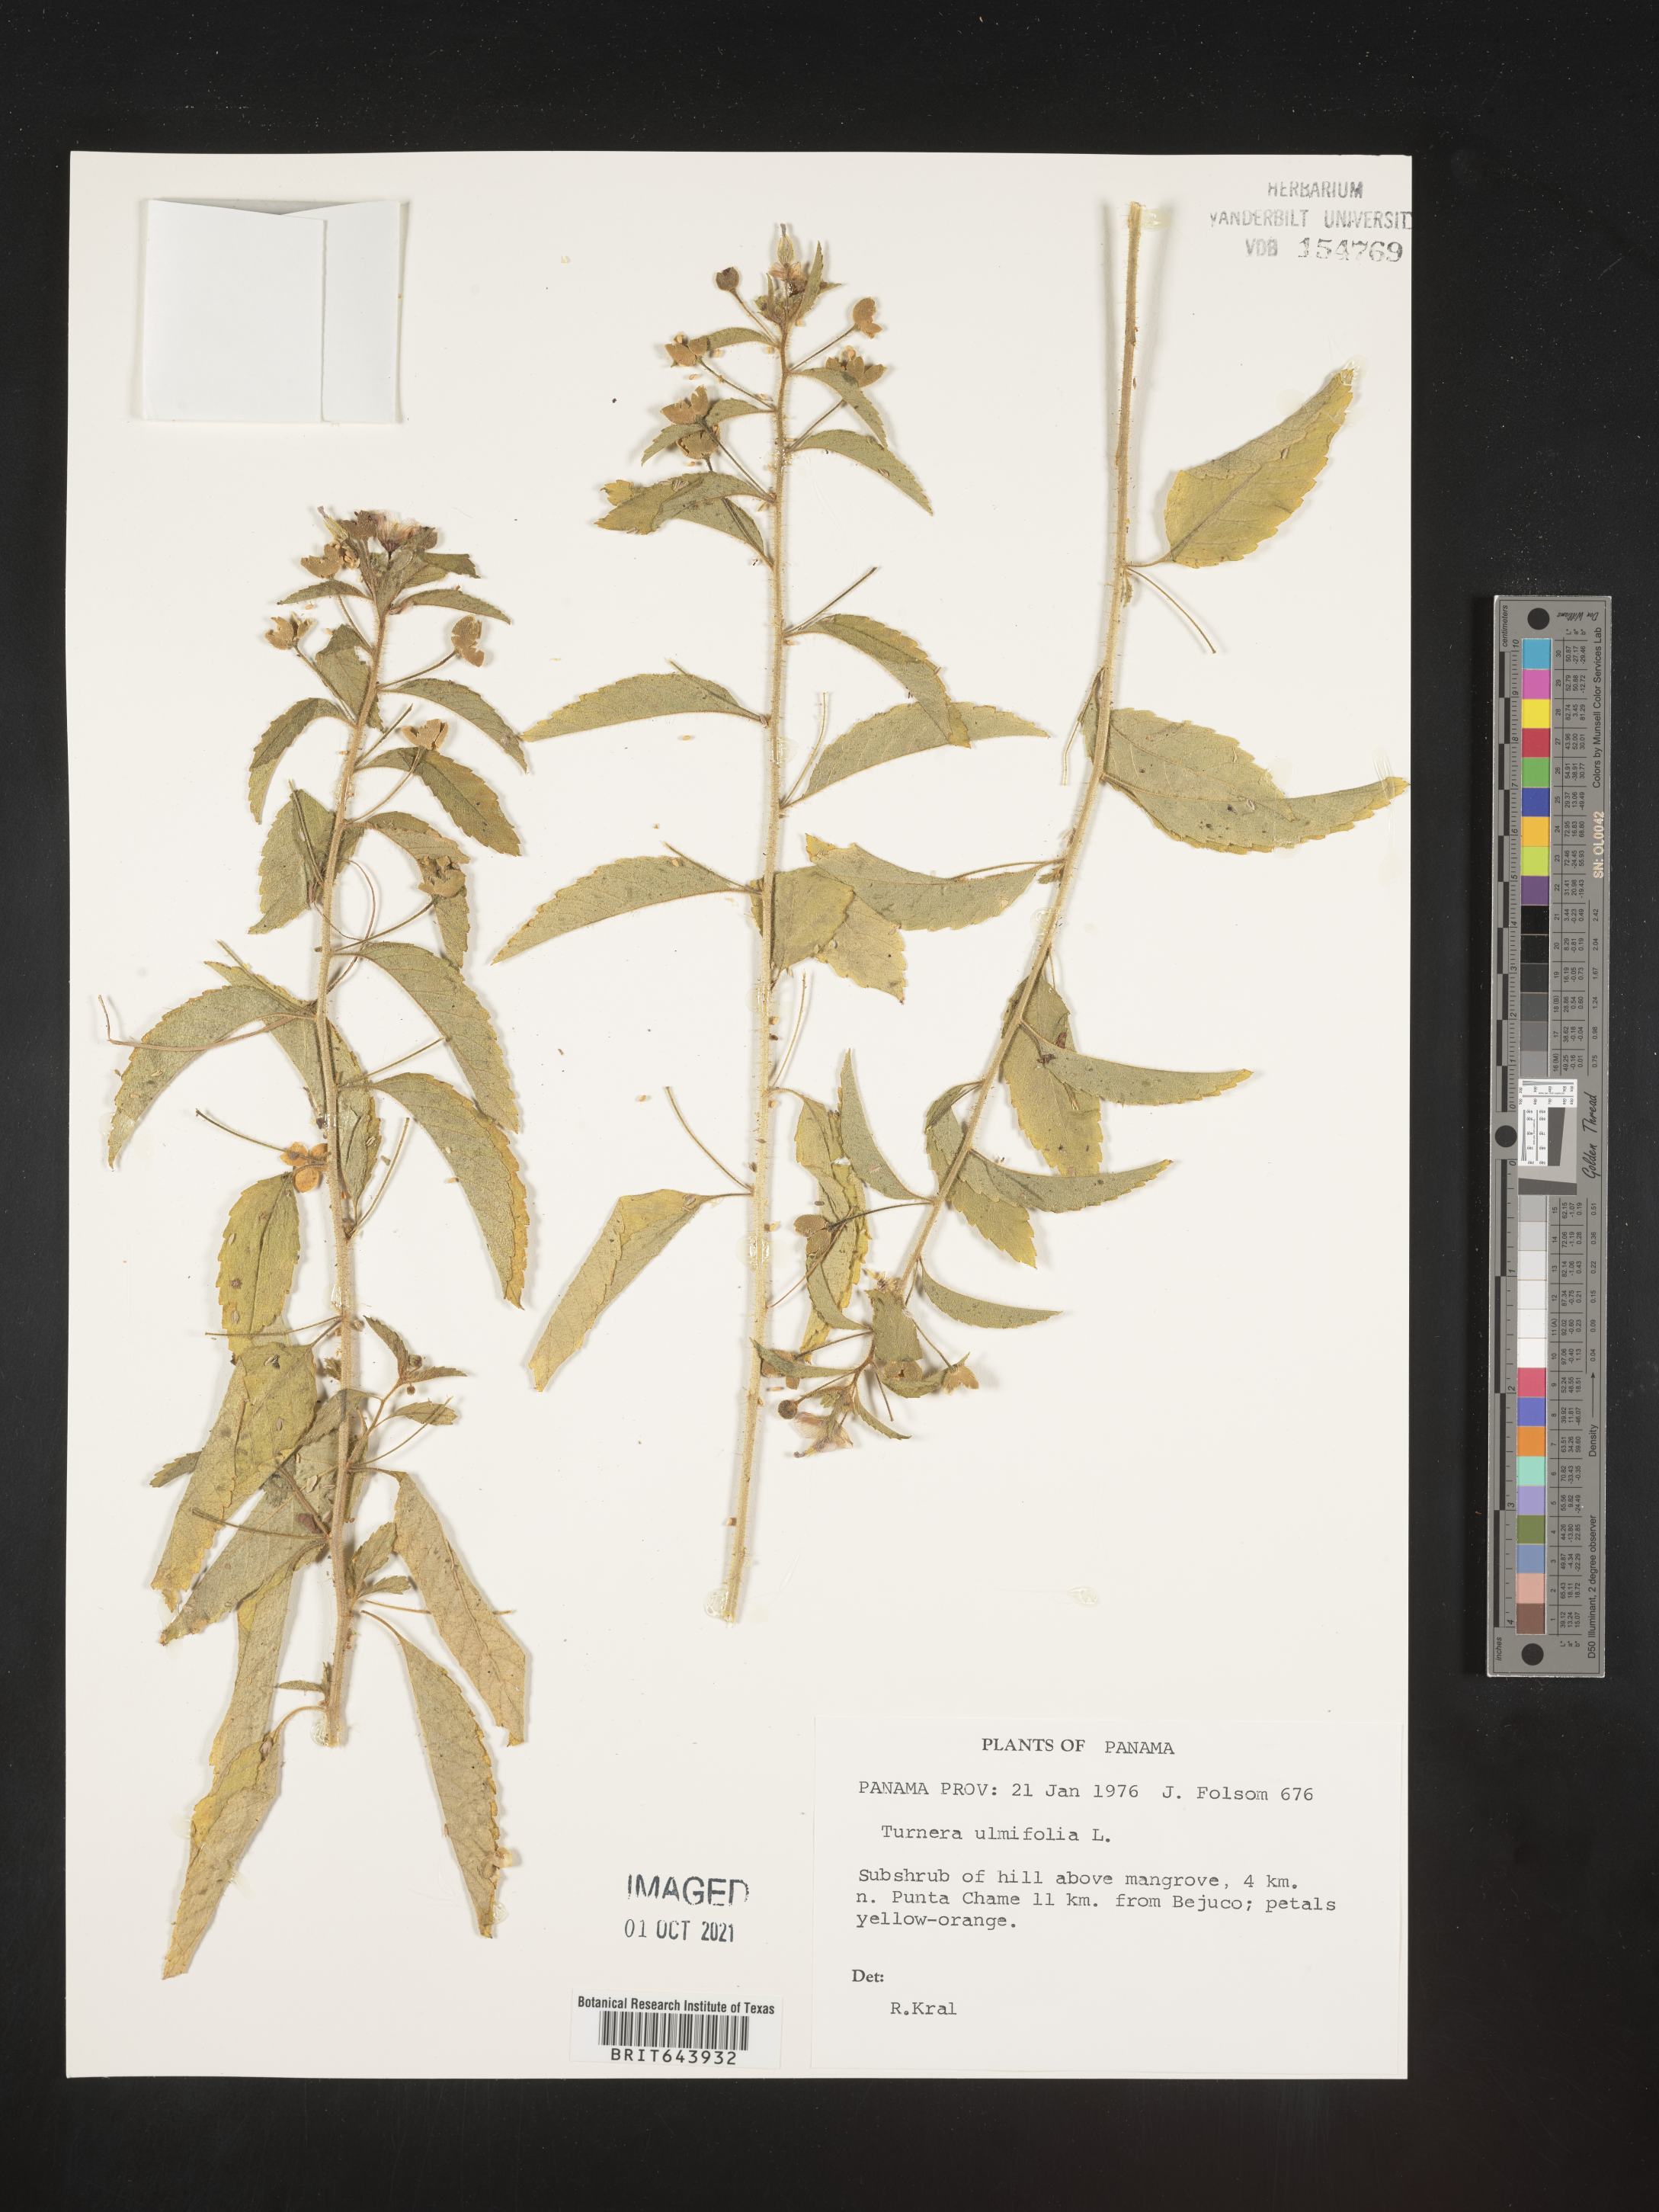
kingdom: Plantae
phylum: Tracheophyta
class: Magnoliopsida
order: Malpighiales
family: Turneraceae
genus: Turnera
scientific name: Turnera
